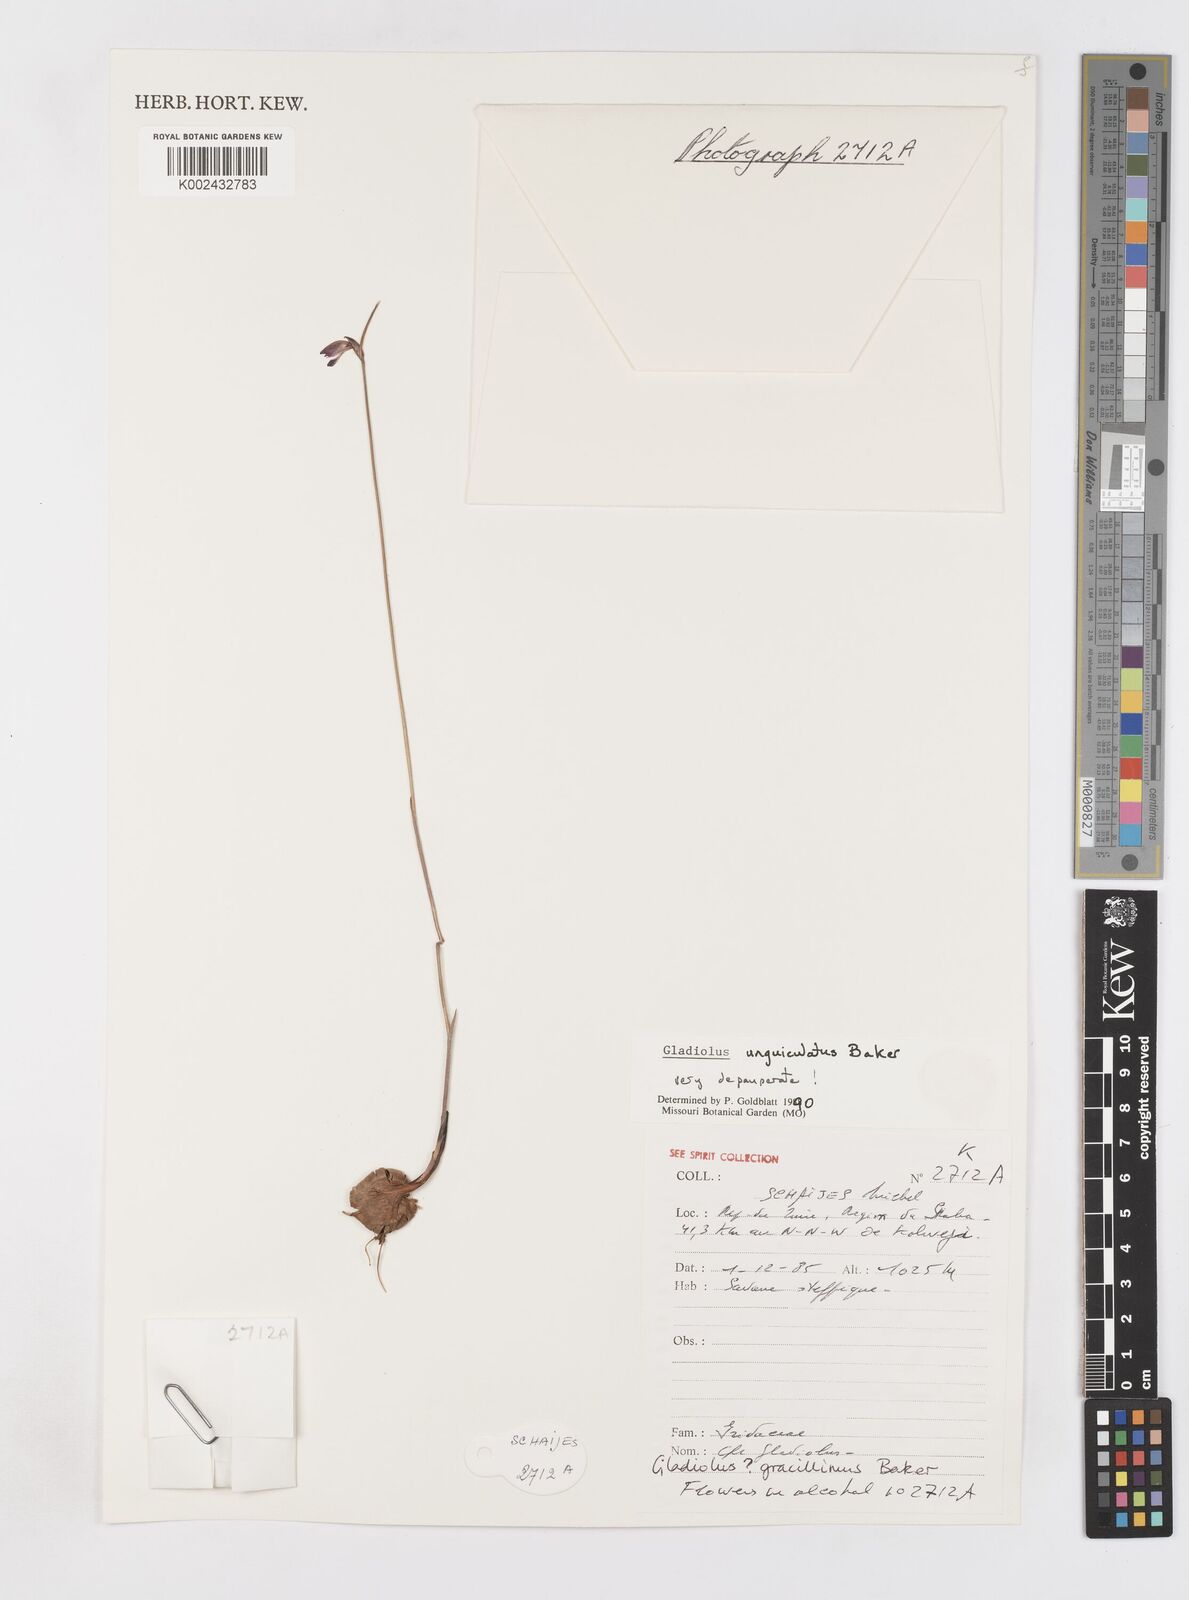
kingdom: Plantae
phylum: Tracheophyta
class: Liliopsida
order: Asparagales
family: Iridaceae
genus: Gladiolus
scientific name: Gladiolus unguiculatus
